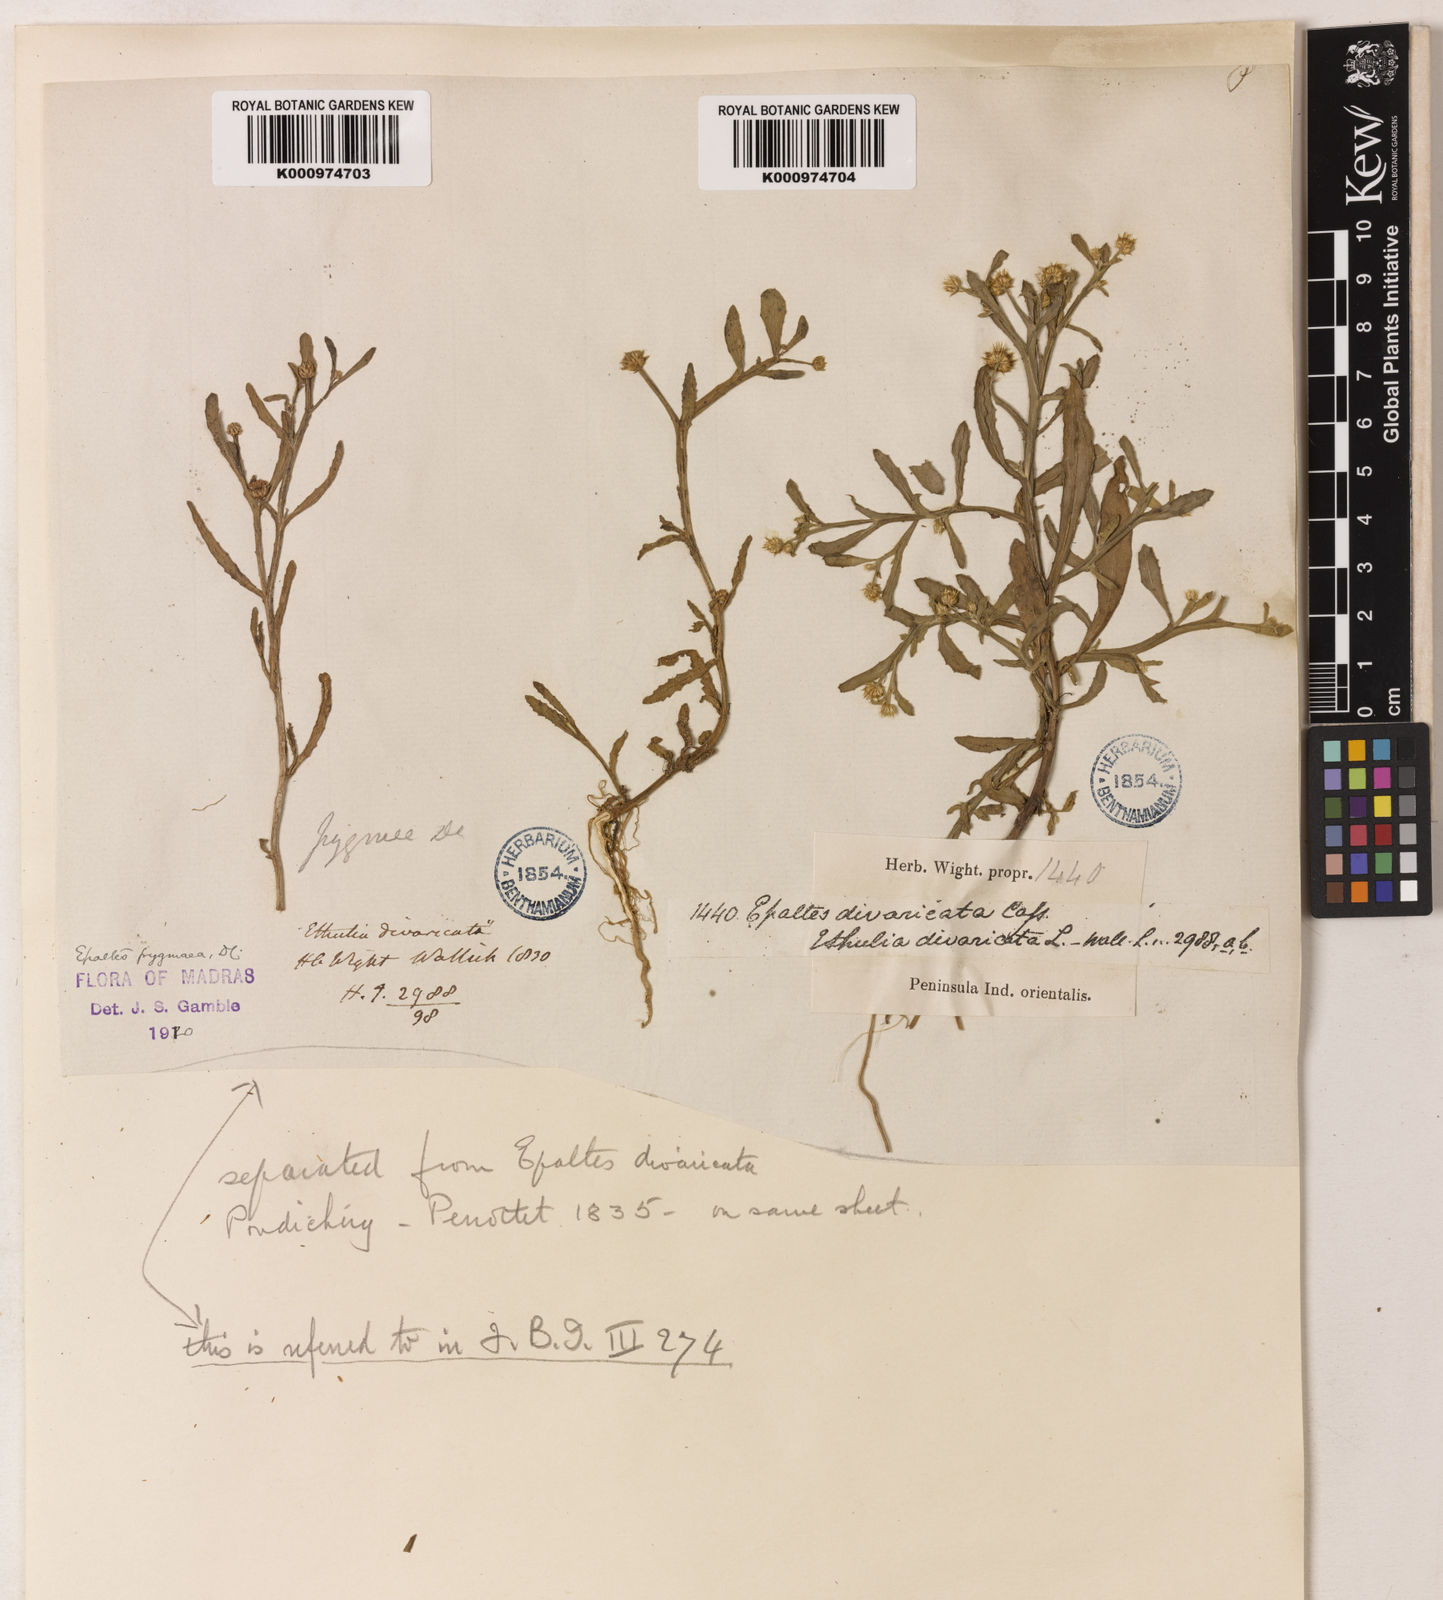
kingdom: Plantae
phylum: Tracheophyta
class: Magnoliopsida
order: Asterales
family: Asteraceae
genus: Epaltes
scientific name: Epaltes pygmaea
